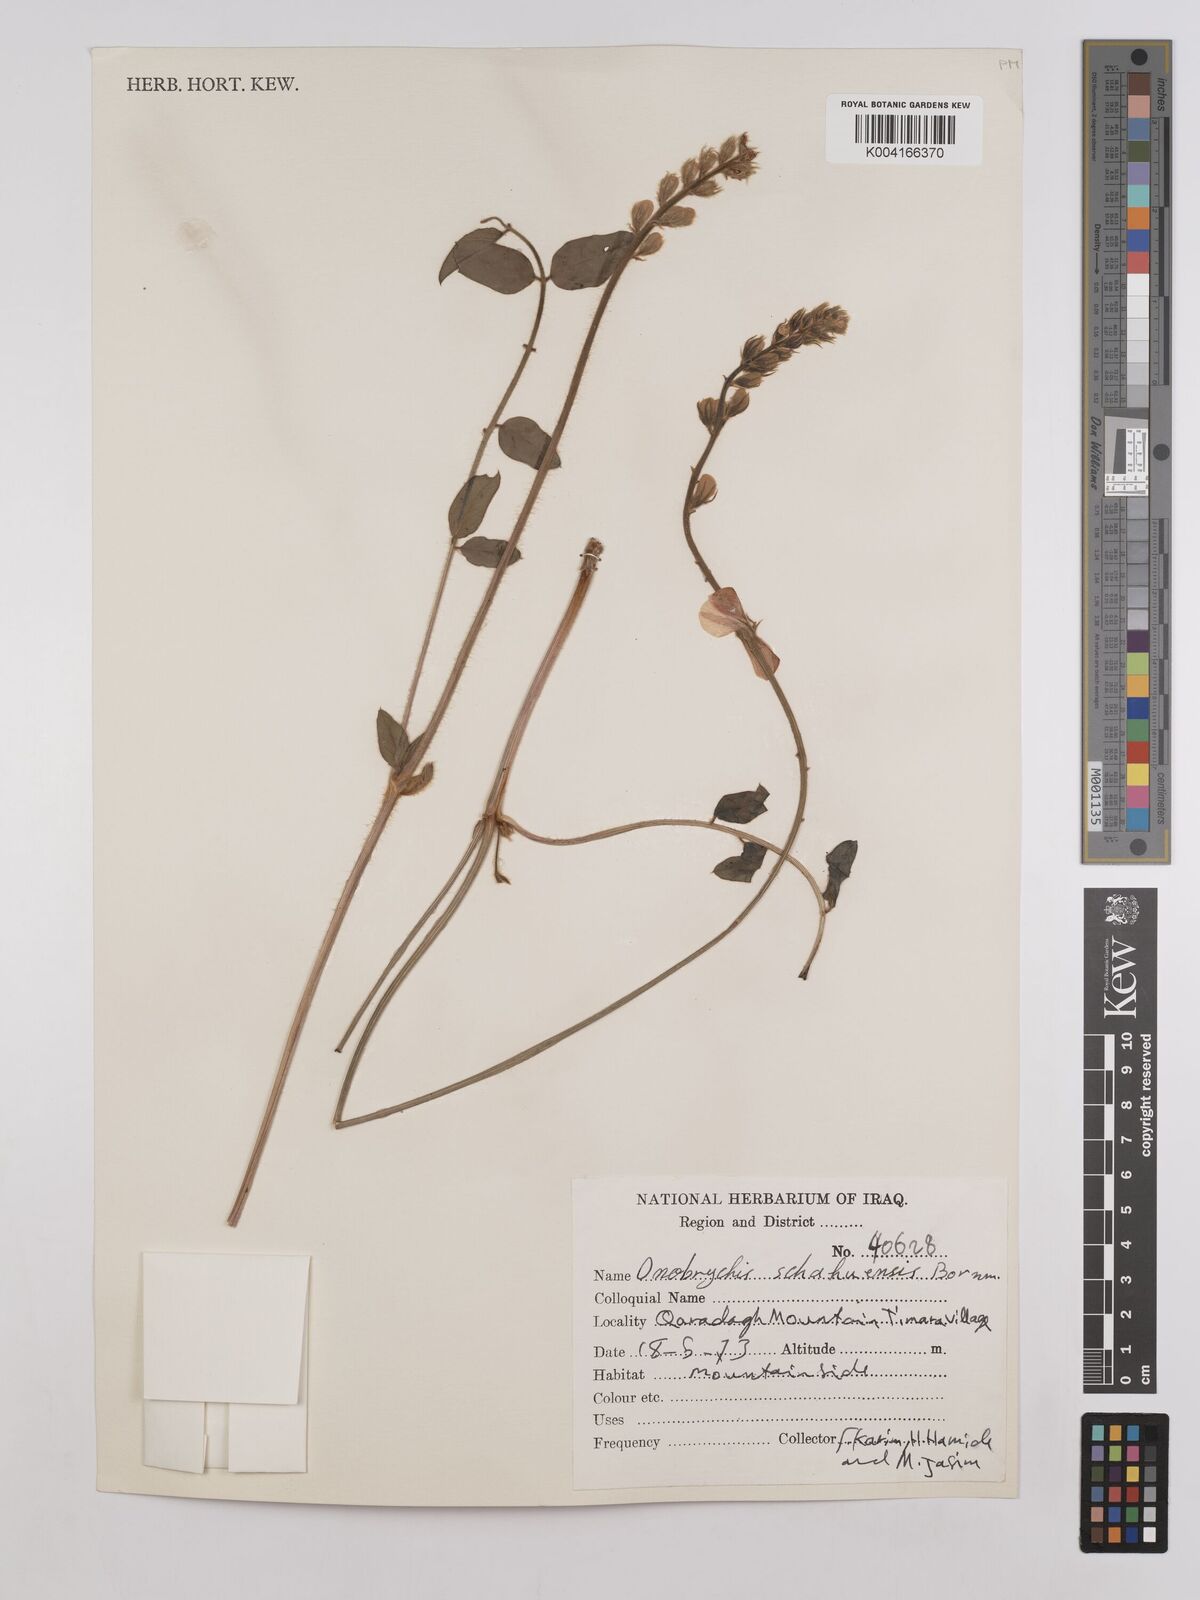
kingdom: Plantae
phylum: Tracheophyta
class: Magnoliopsida
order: Fabales
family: Fabaceae
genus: Onobrychis
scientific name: Onobrychis schahuensis
